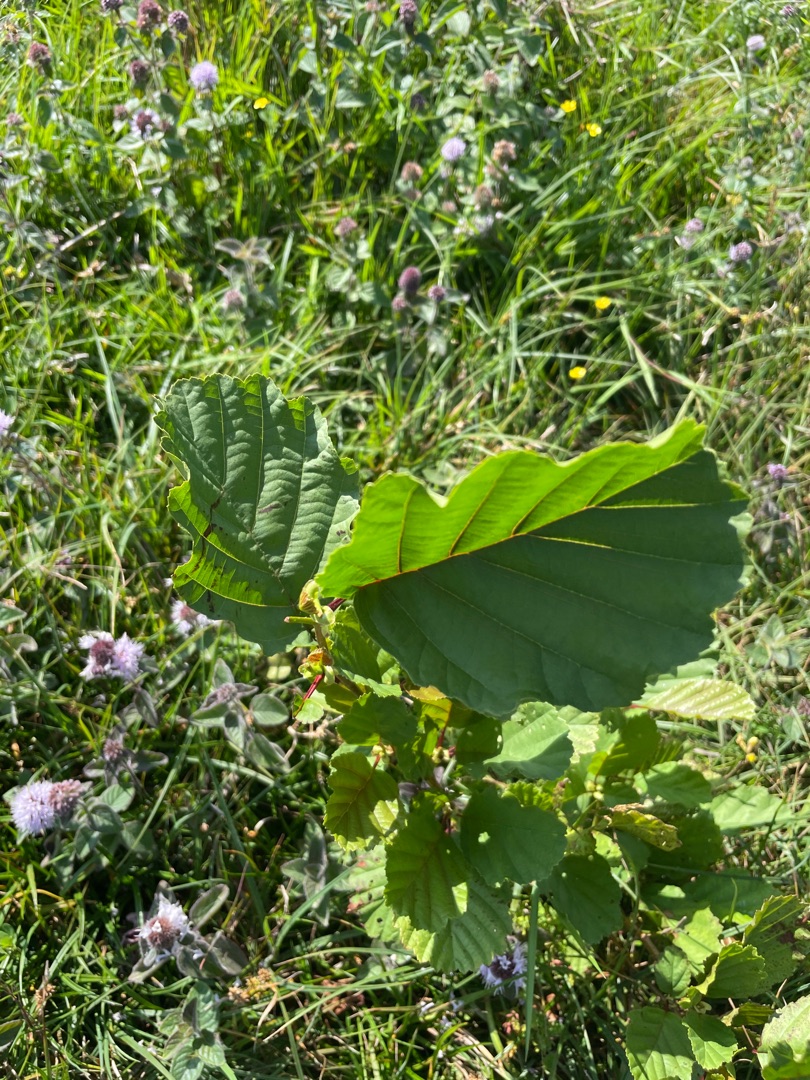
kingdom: Plantae
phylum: Tracheophyta
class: Magnoliopsida
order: Fagales
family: Betulaceae
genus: Alnus
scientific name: Alnus glutinosa
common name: Rød-el
